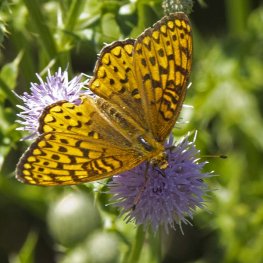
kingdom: Animalia
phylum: Arthropoda
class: Insecta
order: Lepidoptera
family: Nymphalidae
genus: Speyeria
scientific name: Speyeria atlantis
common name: Atlantis Fritillary
